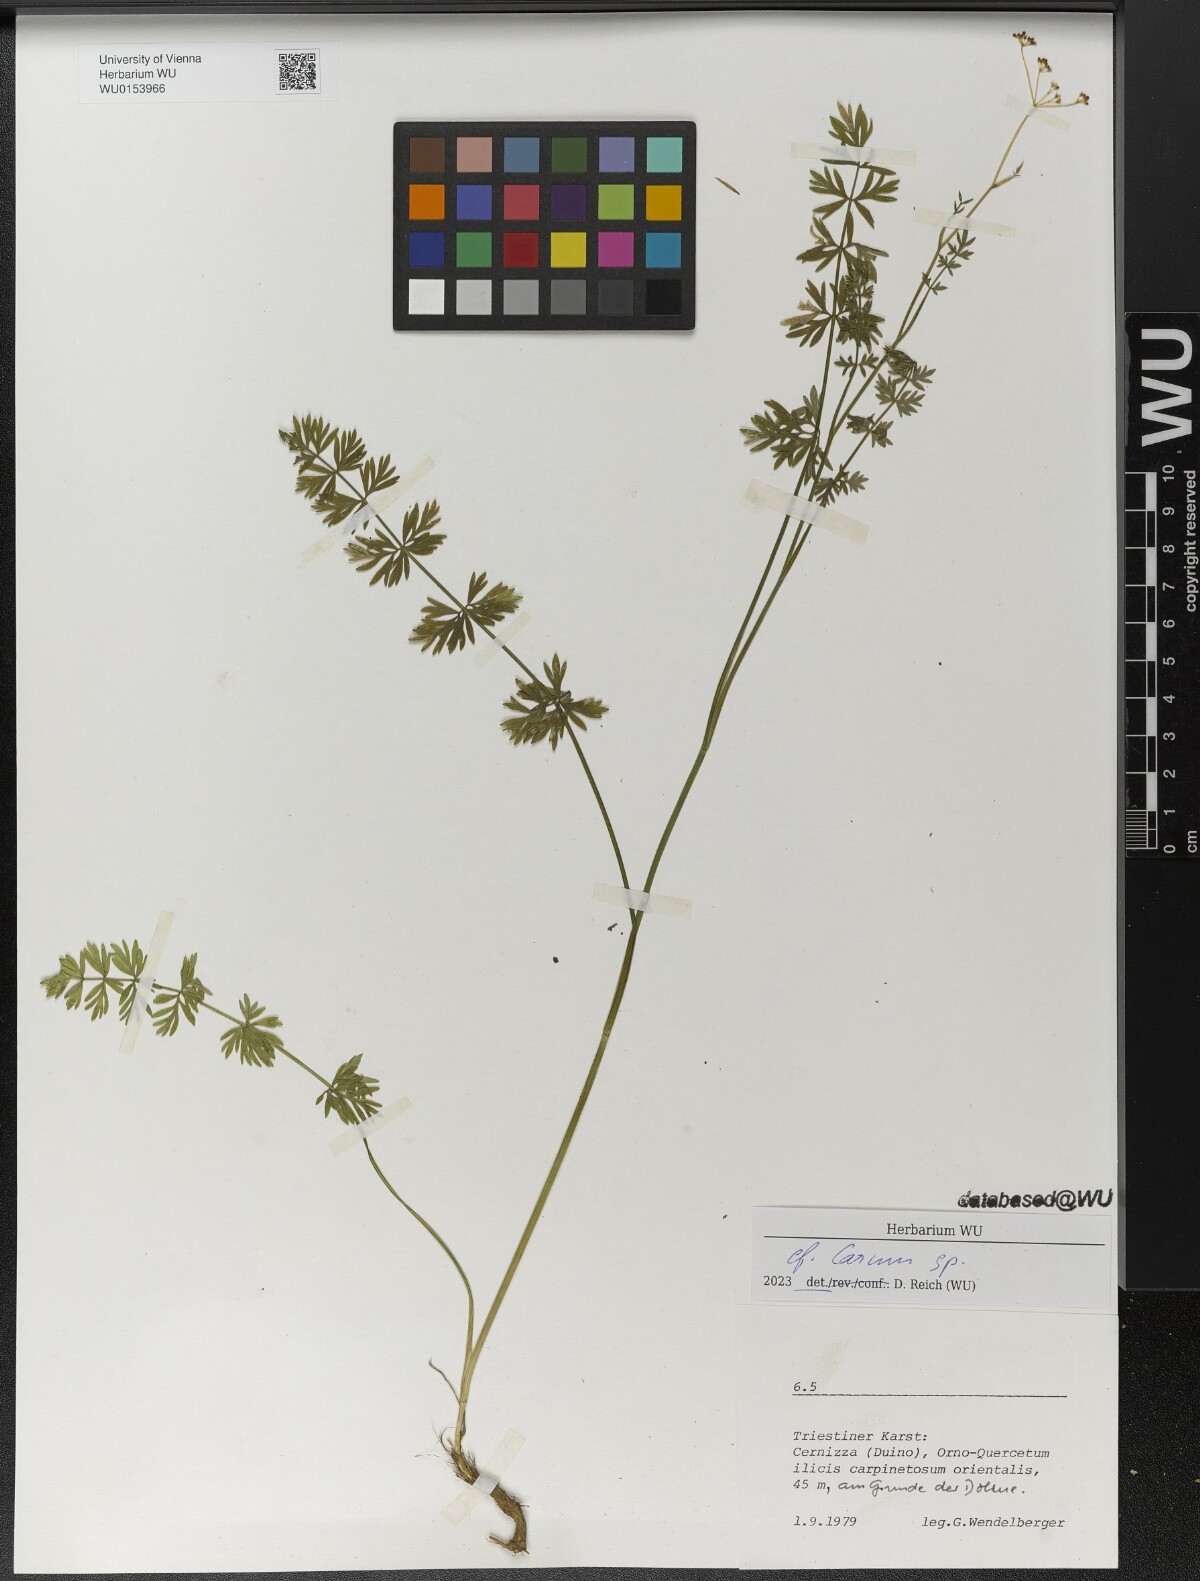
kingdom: Plantae
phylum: Tracheophyta
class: Magnoliopsida
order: Apiales
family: Apiaceae
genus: Carum
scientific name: Carum
